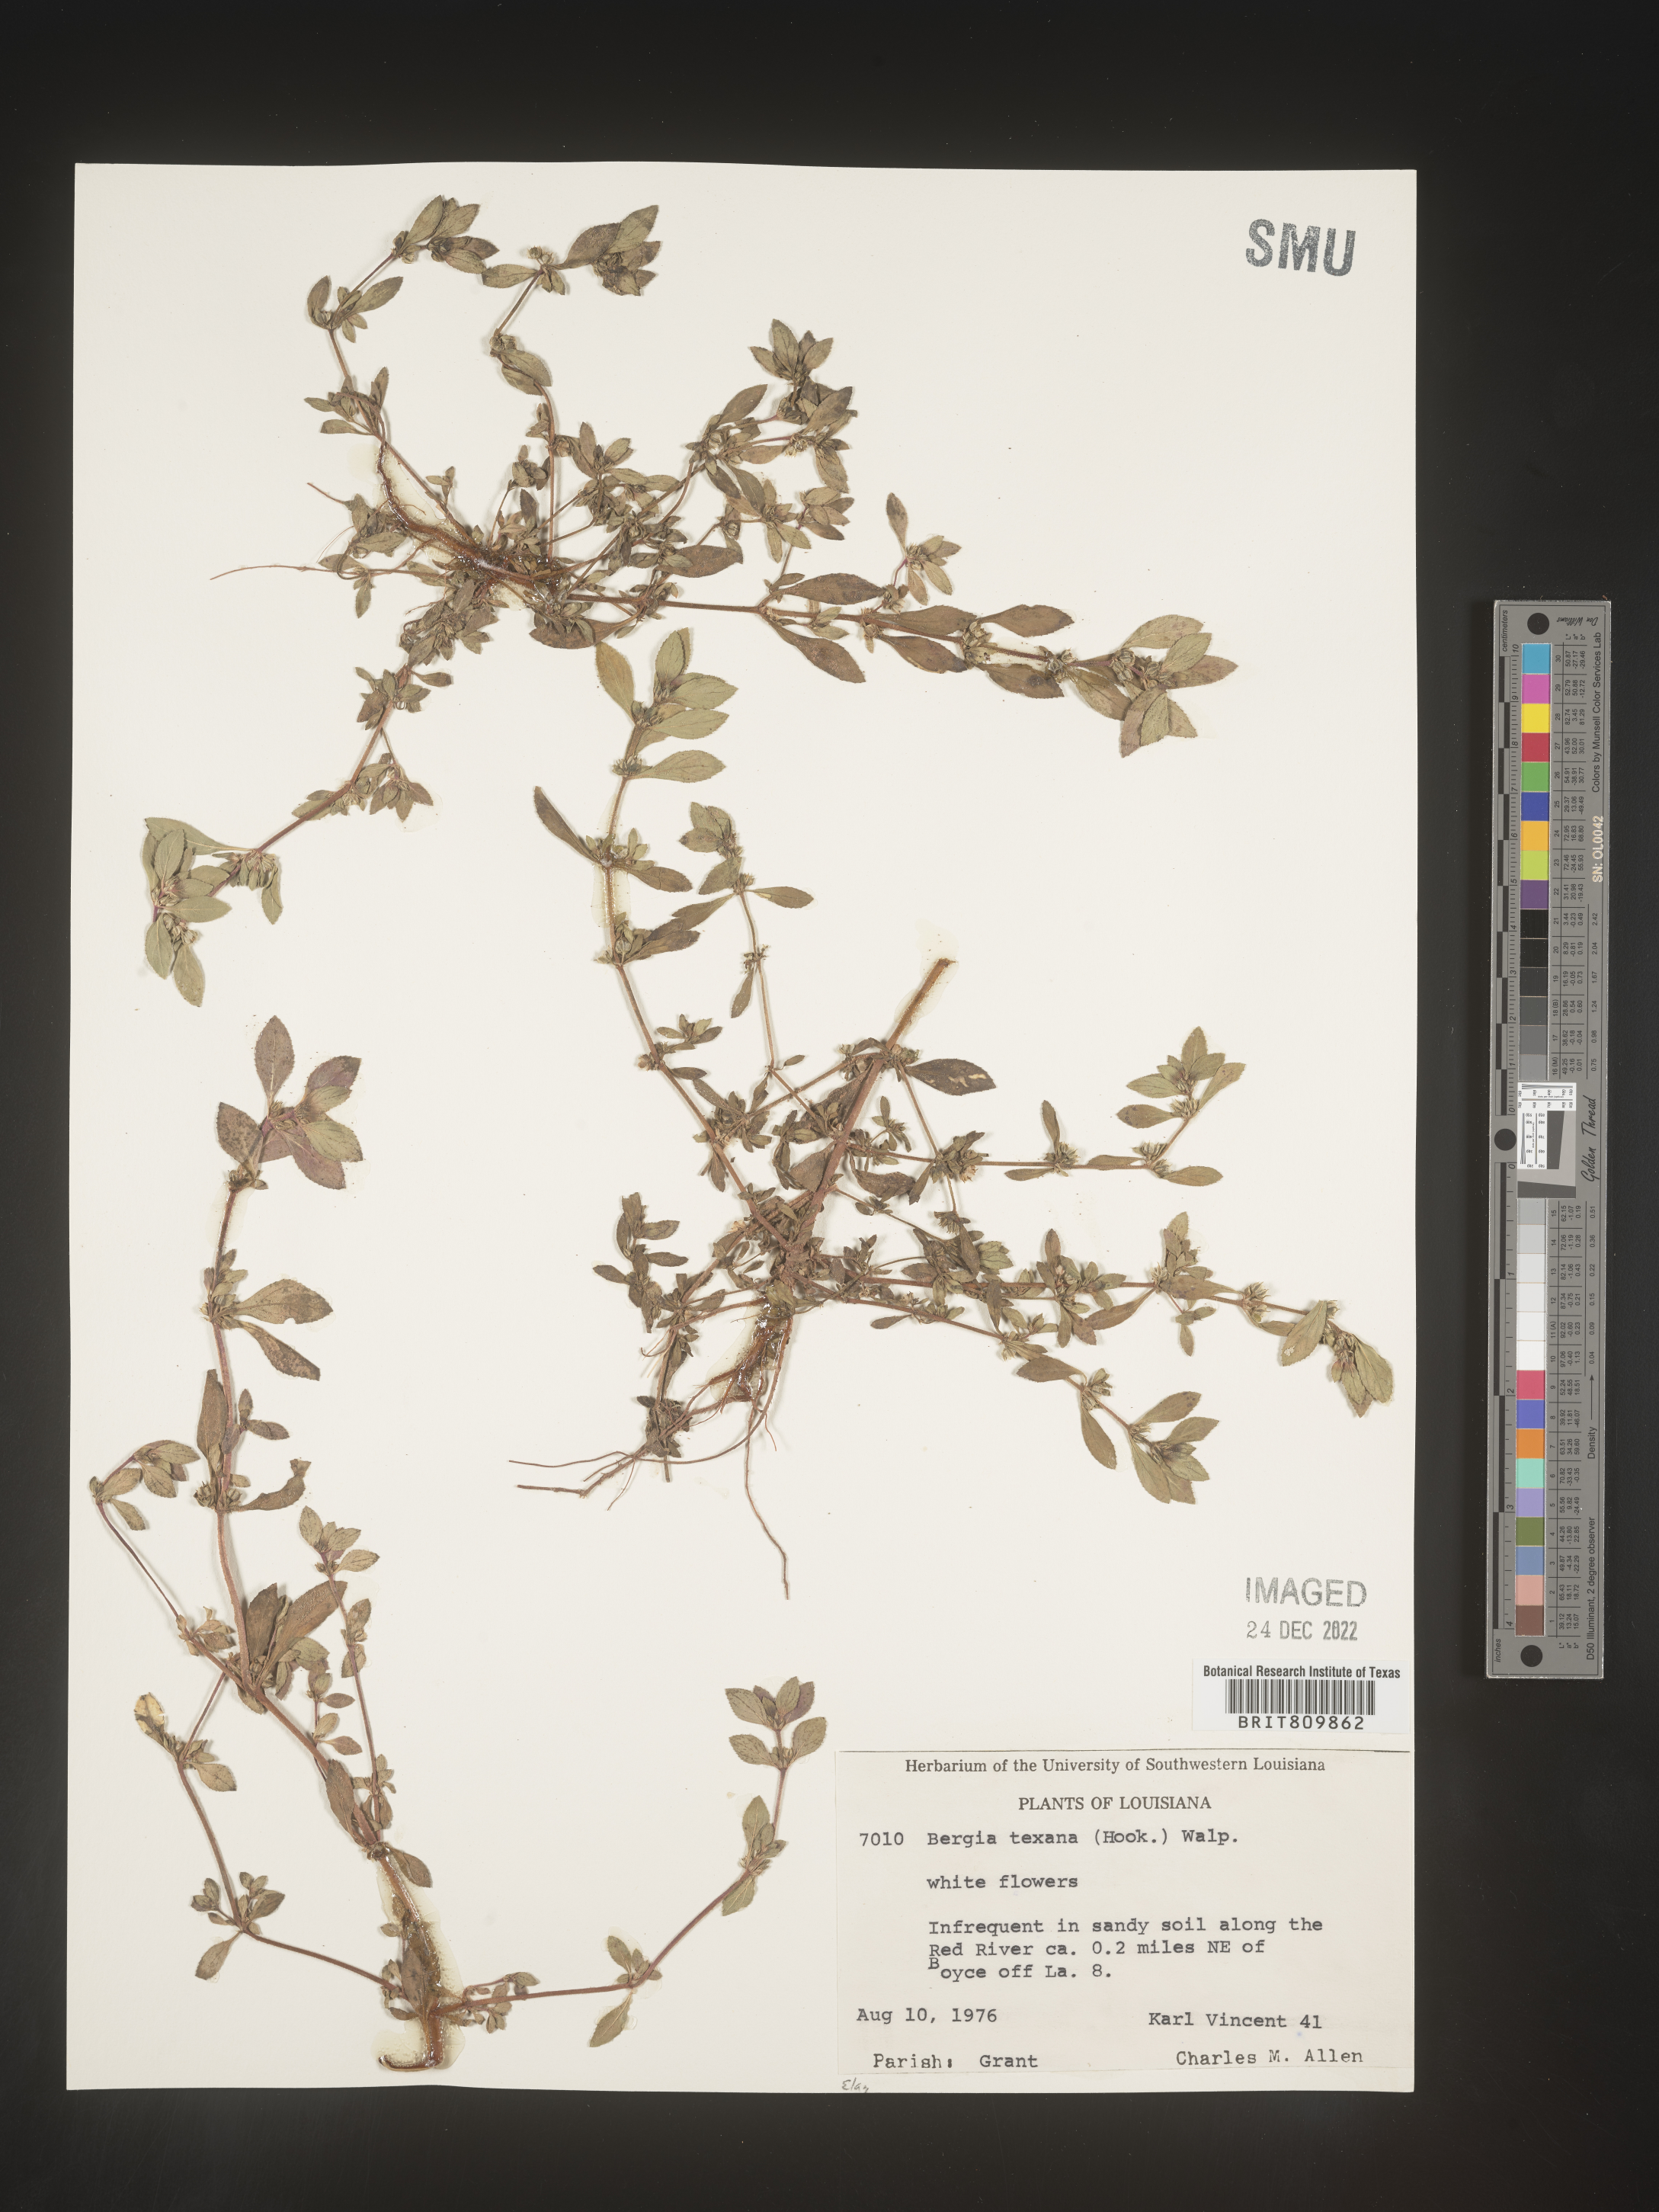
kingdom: Plantae
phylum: Tracheophyta
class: Magnoliopsida
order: Malpighiales
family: Elatinaceae
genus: Bergia
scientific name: Bergia
